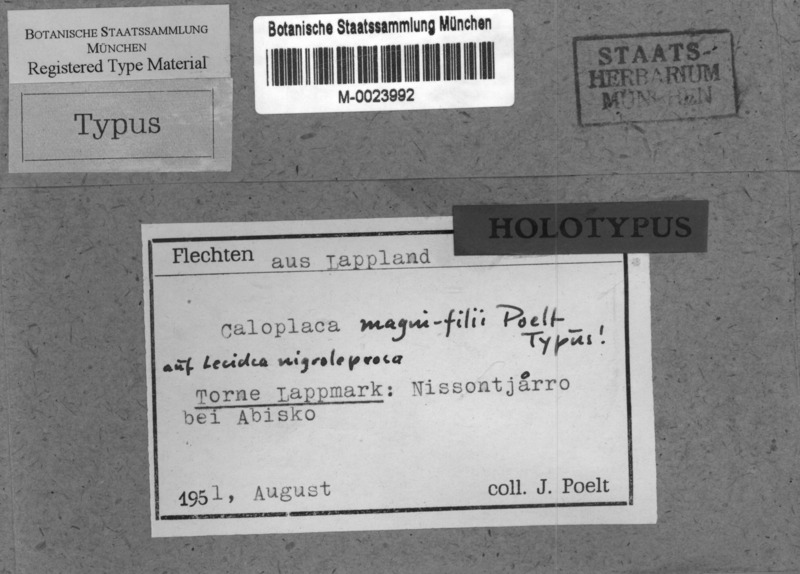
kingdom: Fungi
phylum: Ascomycota
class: Lecanoromycetes
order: Teloschistales
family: Teloschistaceae
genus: Caloplaca
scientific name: Caloplaca magni-filii
